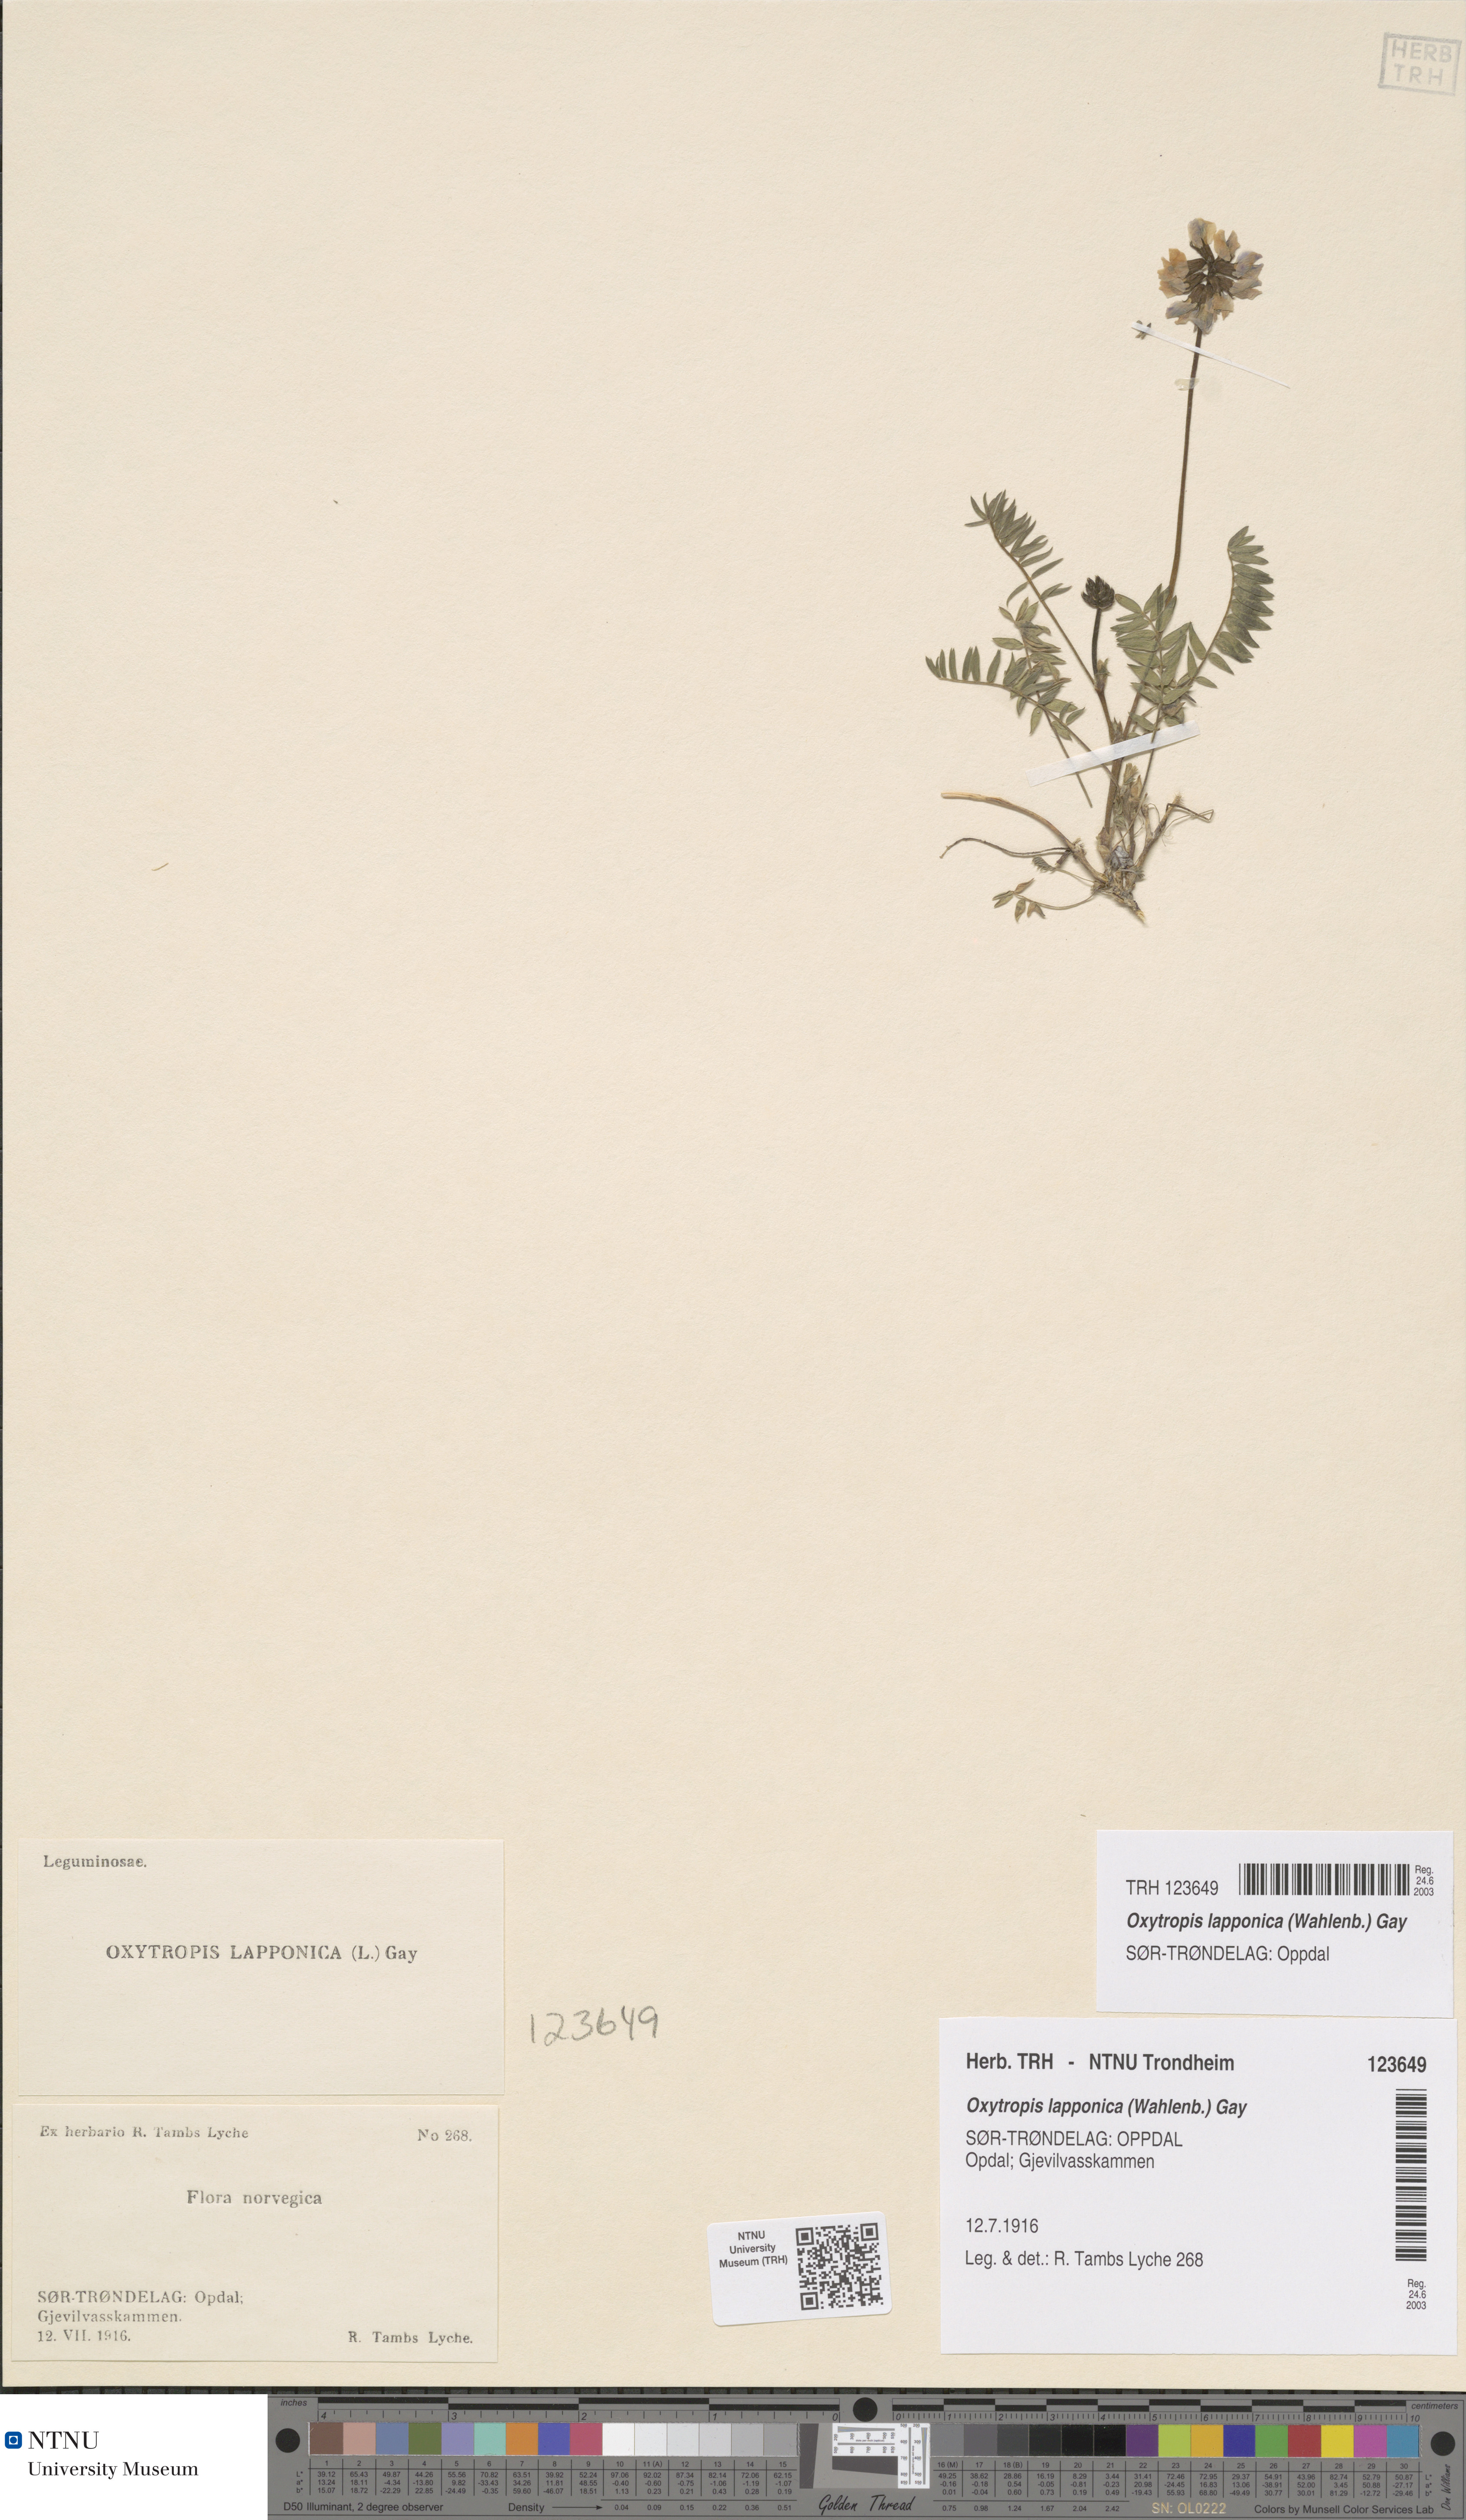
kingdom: Plantae
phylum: Tracheophyta
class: Magnoliopsida
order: Fabales
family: Fabaceae
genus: Oxytropis
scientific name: Oxytropis lapponica
